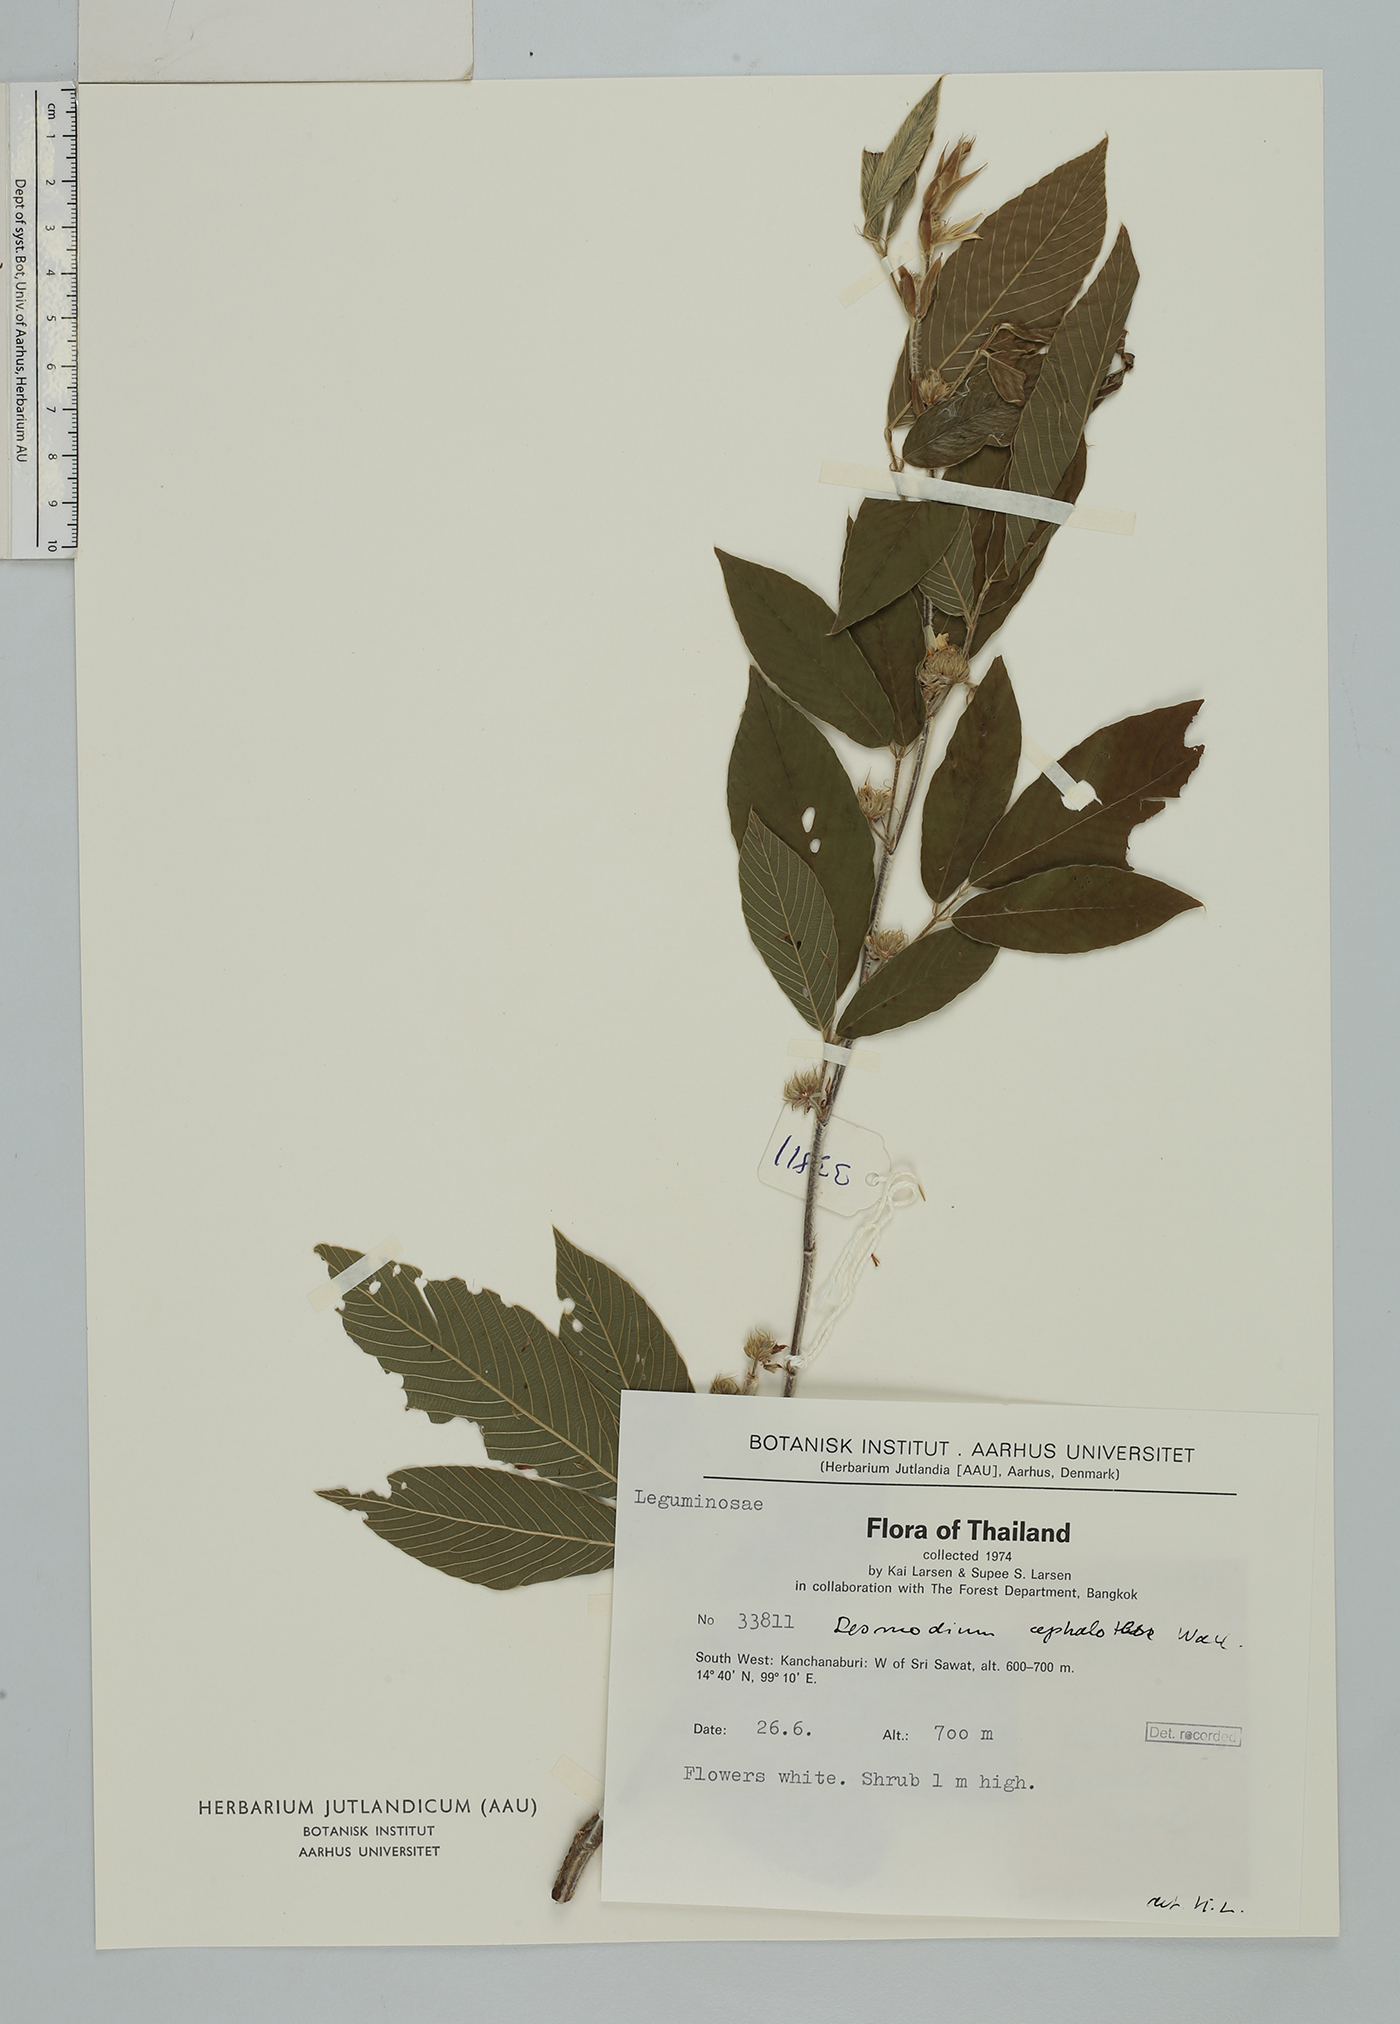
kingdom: Plantae
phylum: Tracheophyta
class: Magnoliopsida
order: Fabales
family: Fabaceae
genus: Dendrolobium
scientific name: Dendrolobium triangulare
